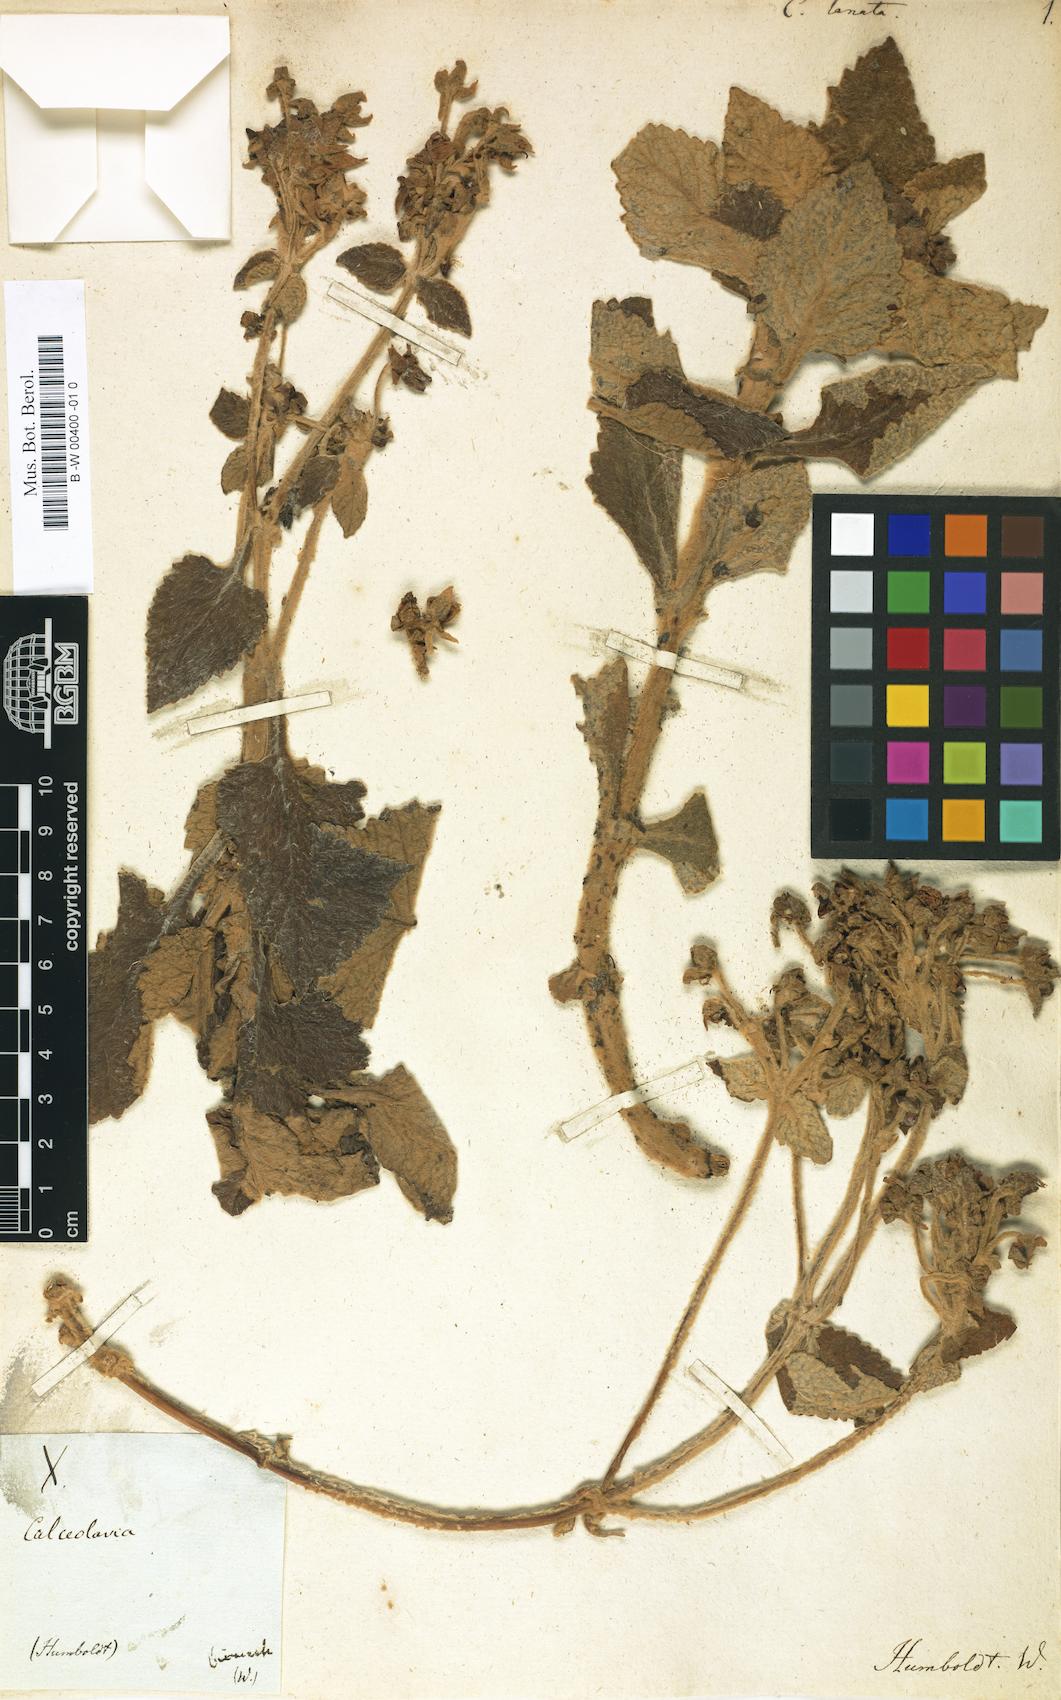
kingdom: Plantae
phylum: Tracheophyta
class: Magnoliopsida
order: Lamiales
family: Calceolariaceae
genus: Calceolaria
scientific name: Calceolaria lanata
